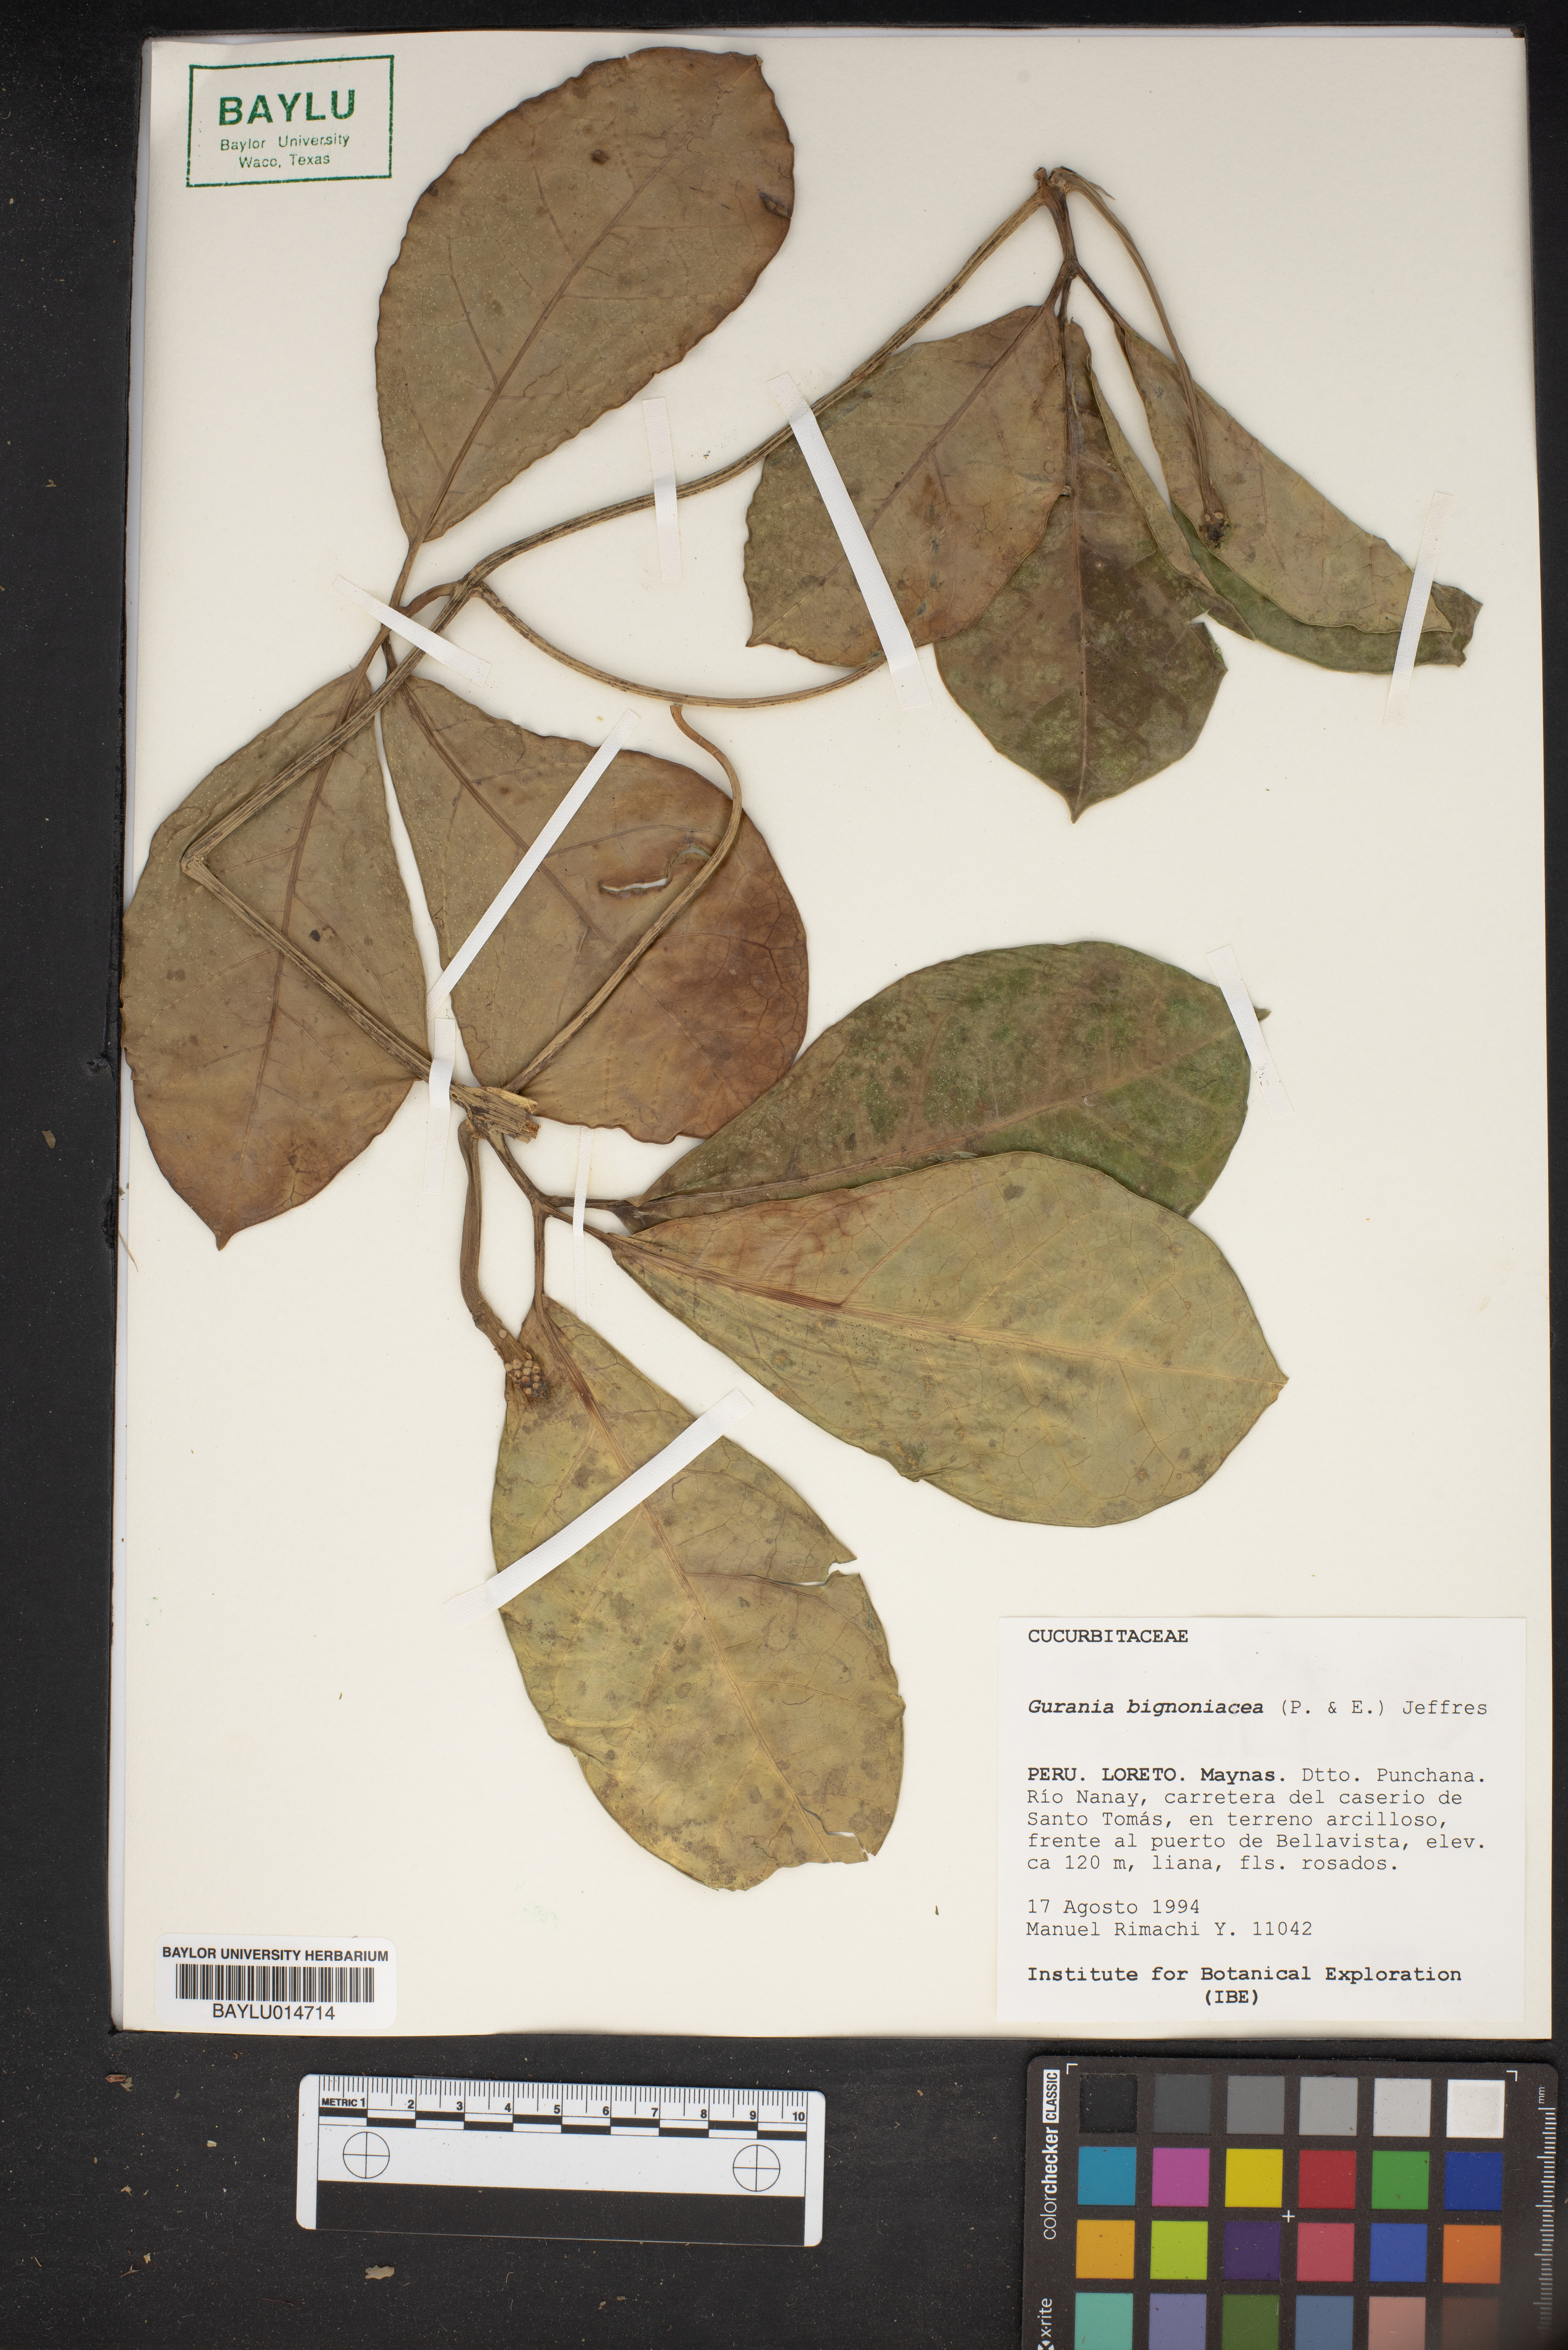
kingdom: Plantae
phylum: Tracheophyta
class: Magnoliopsida
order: Cucurbitales
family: Cucurbitaceae
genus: Gurania
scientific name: Gurania bignoniacea
